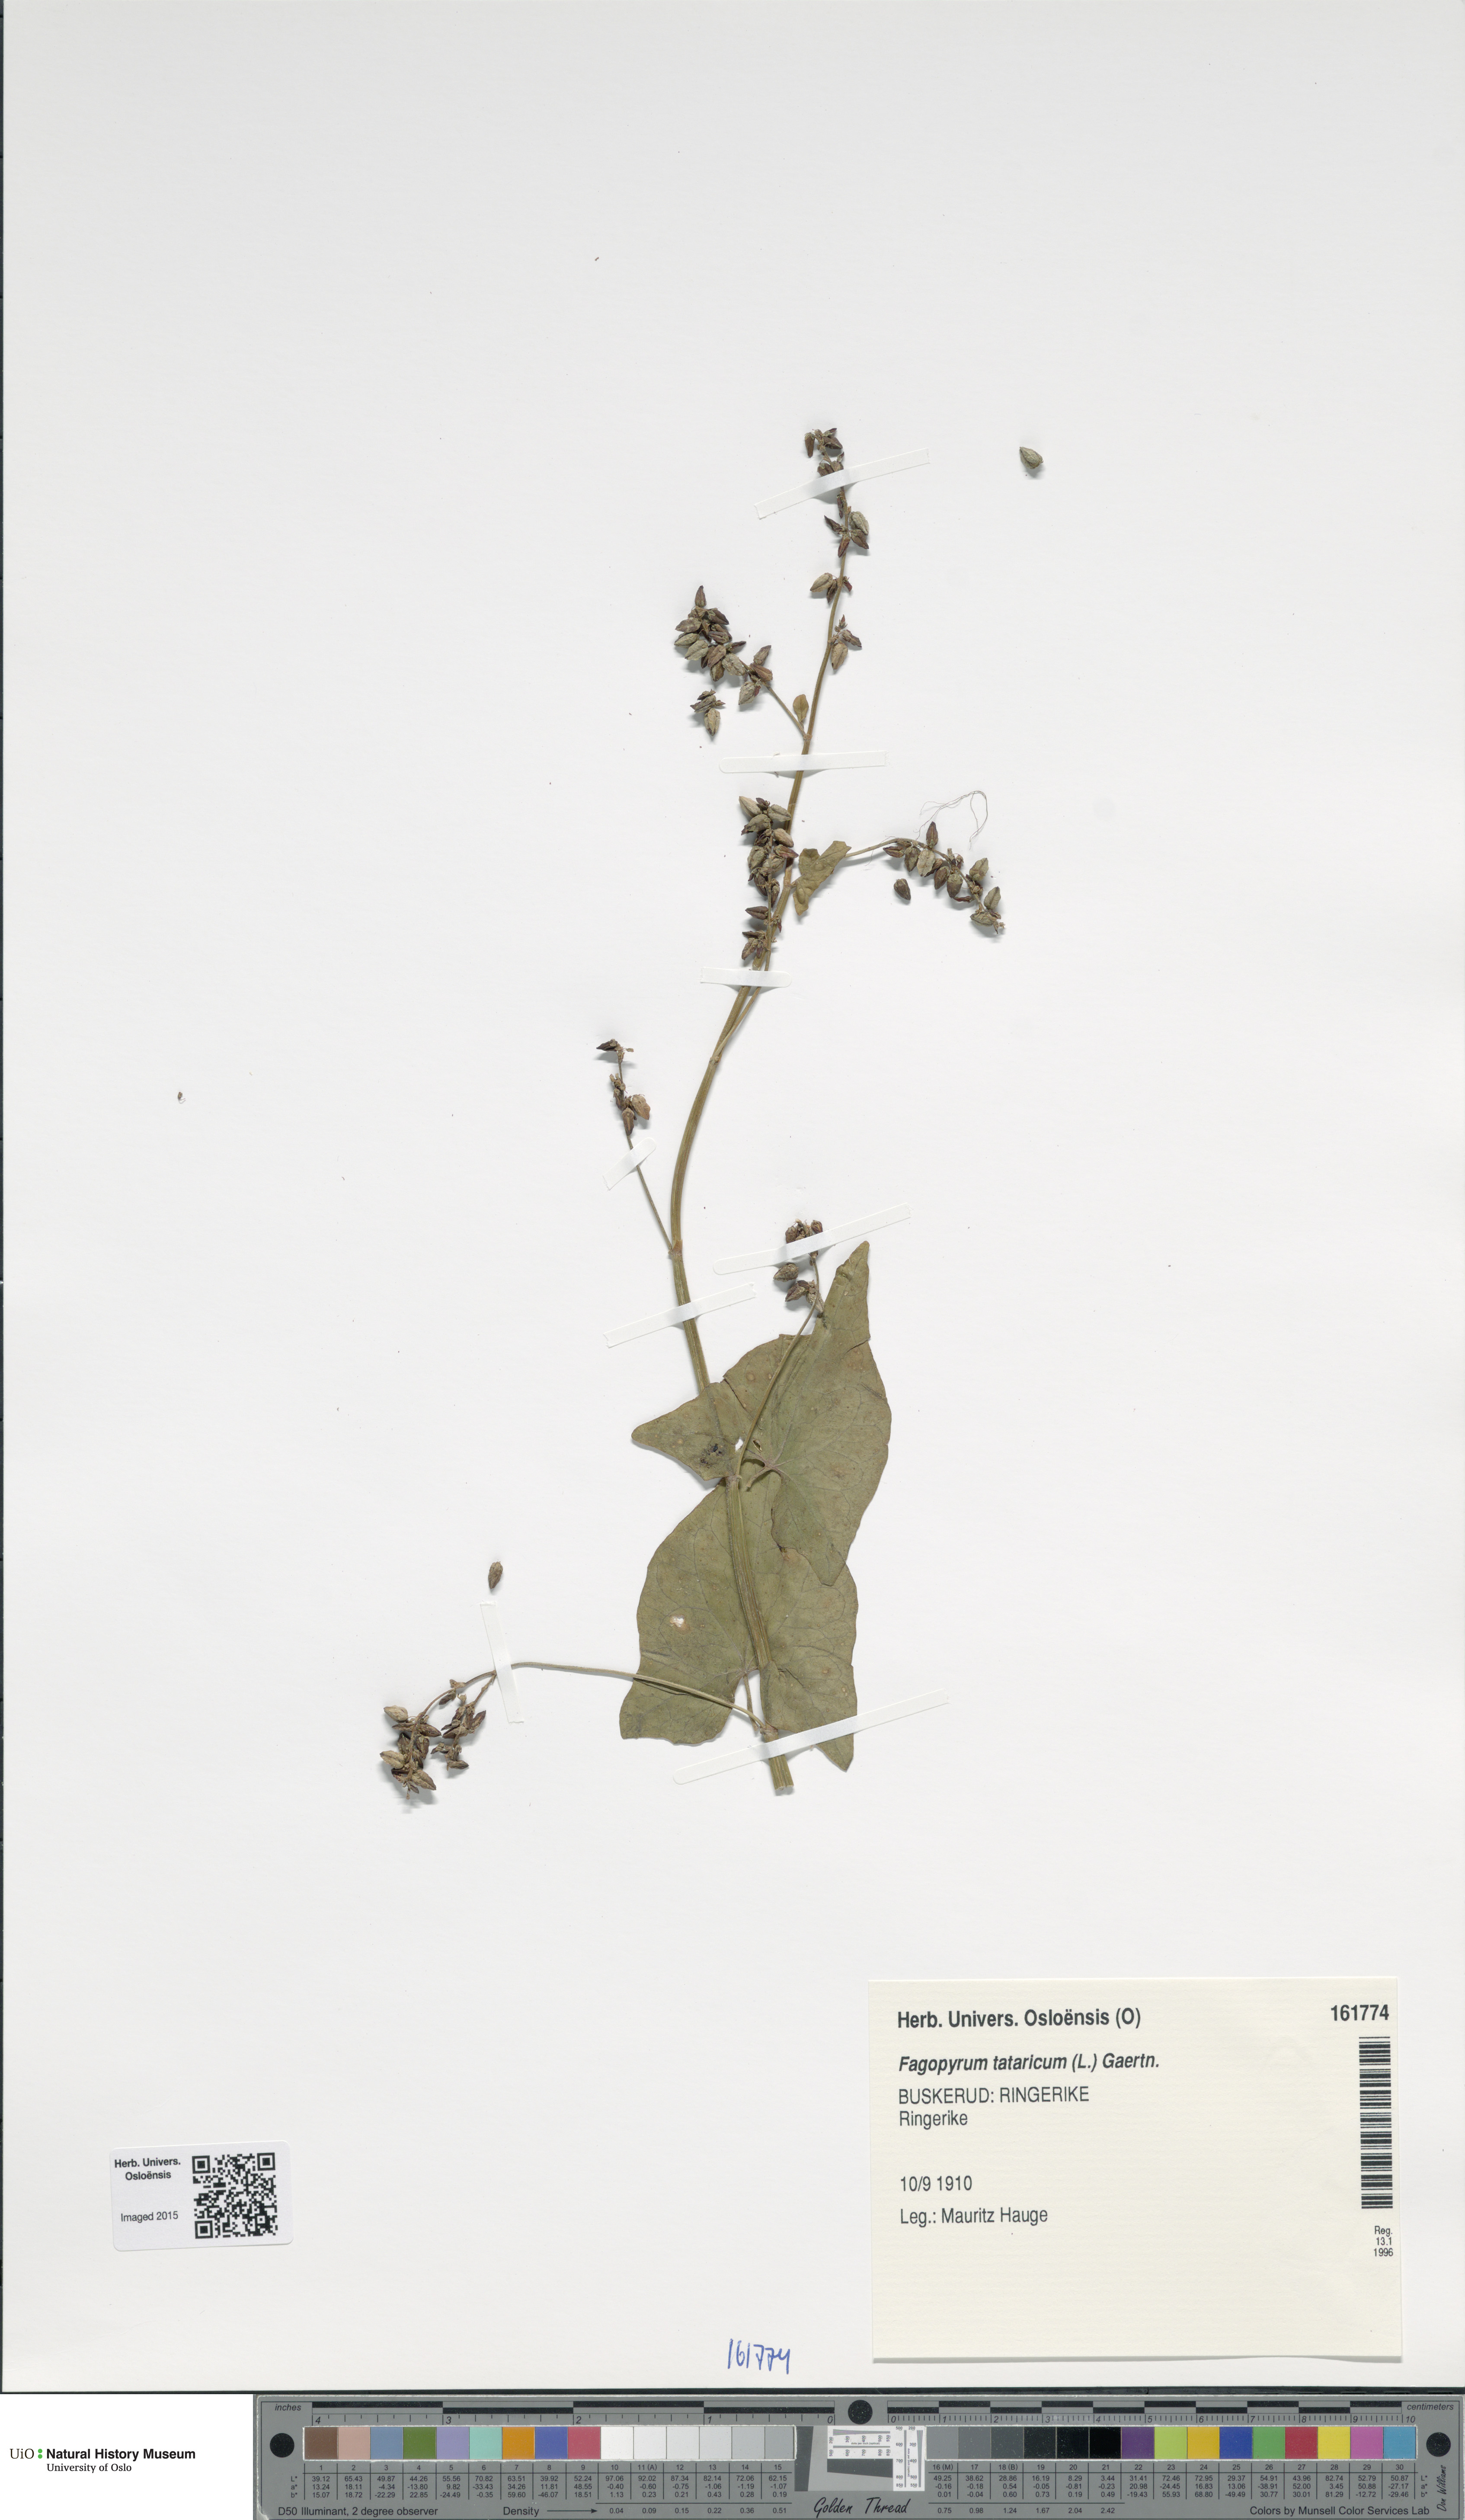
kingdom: Plantae
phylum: Tracheophyta
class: Magnoliopsida
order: Caryophyllales
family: Polygonaceae
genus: Fagopyrum
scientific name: Fagopyrum tataricum
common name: Green buckwheat
